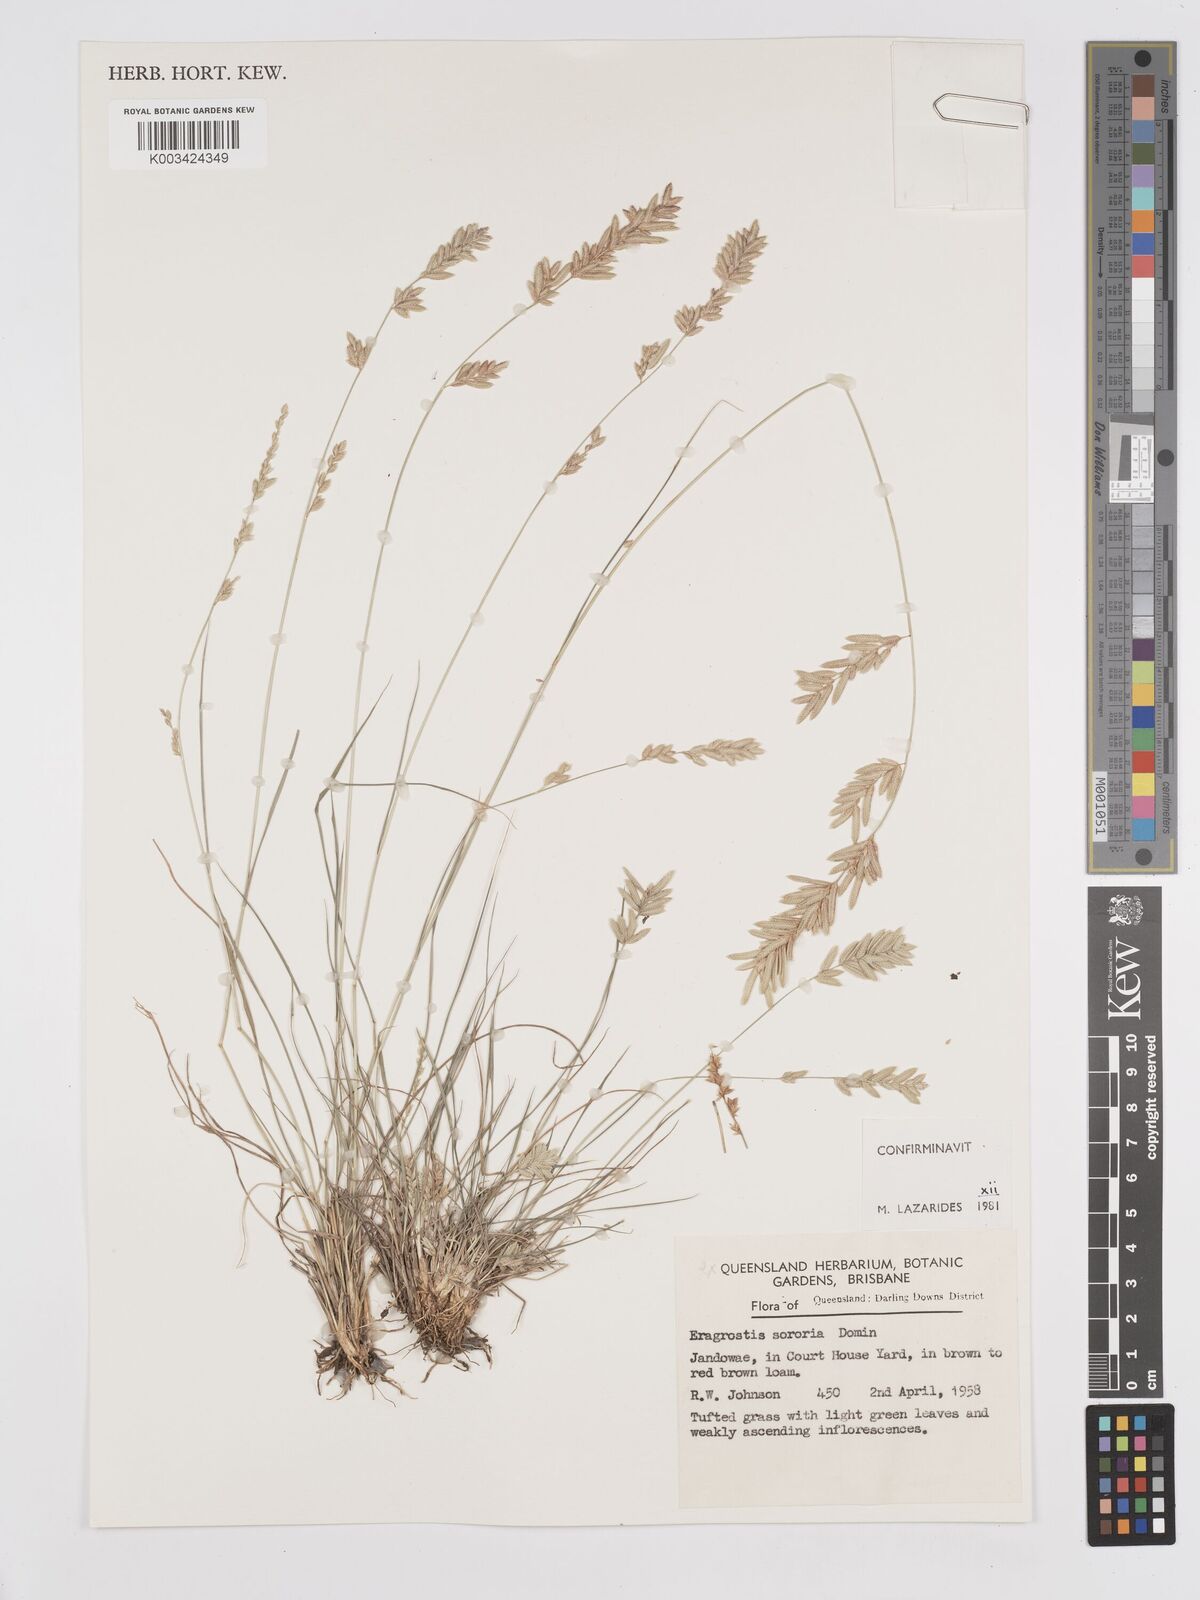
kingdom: Plantae
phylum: Tracheophyta
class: Liliopsida
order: Poales
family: Poaceae
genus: Eragrostis
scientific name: Eragrostis sororia
